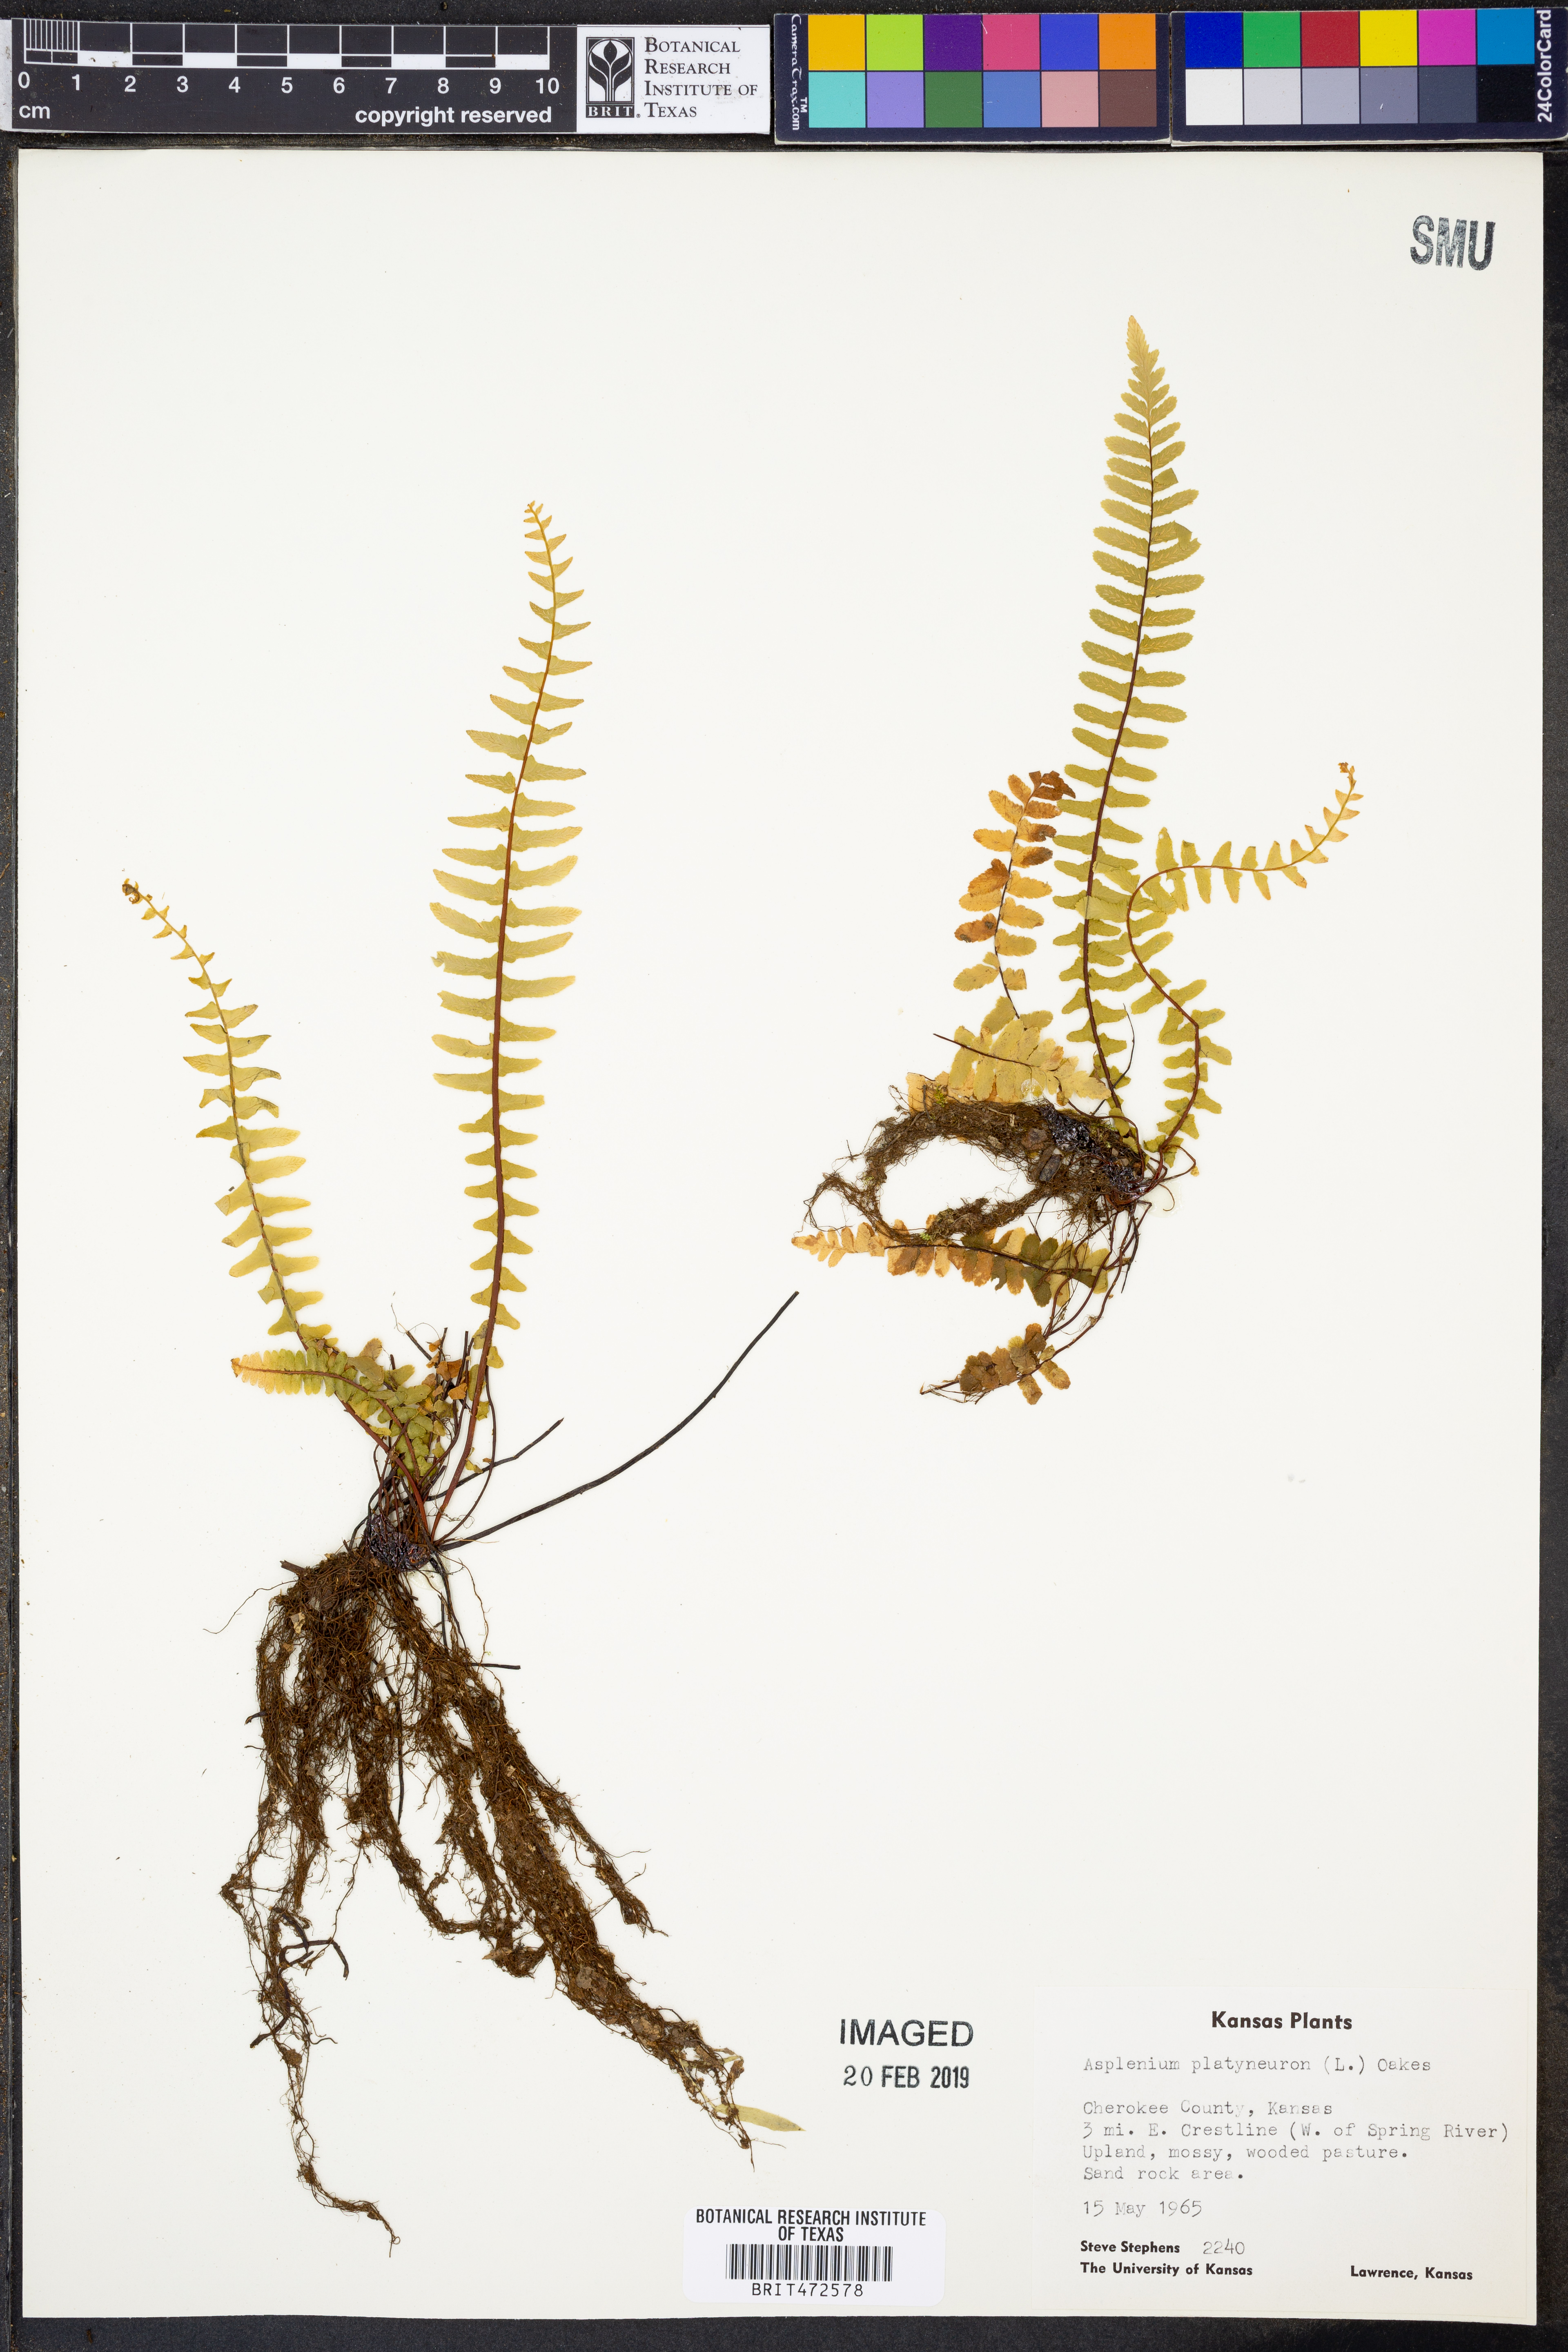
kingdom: Plantae
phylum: Tracheophyta
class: Polypodiopsida
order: Polypodiales
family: Aspleniaceae
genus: Asplenium
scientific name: Asplenium platyneuron
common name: Ebony spleenwort
